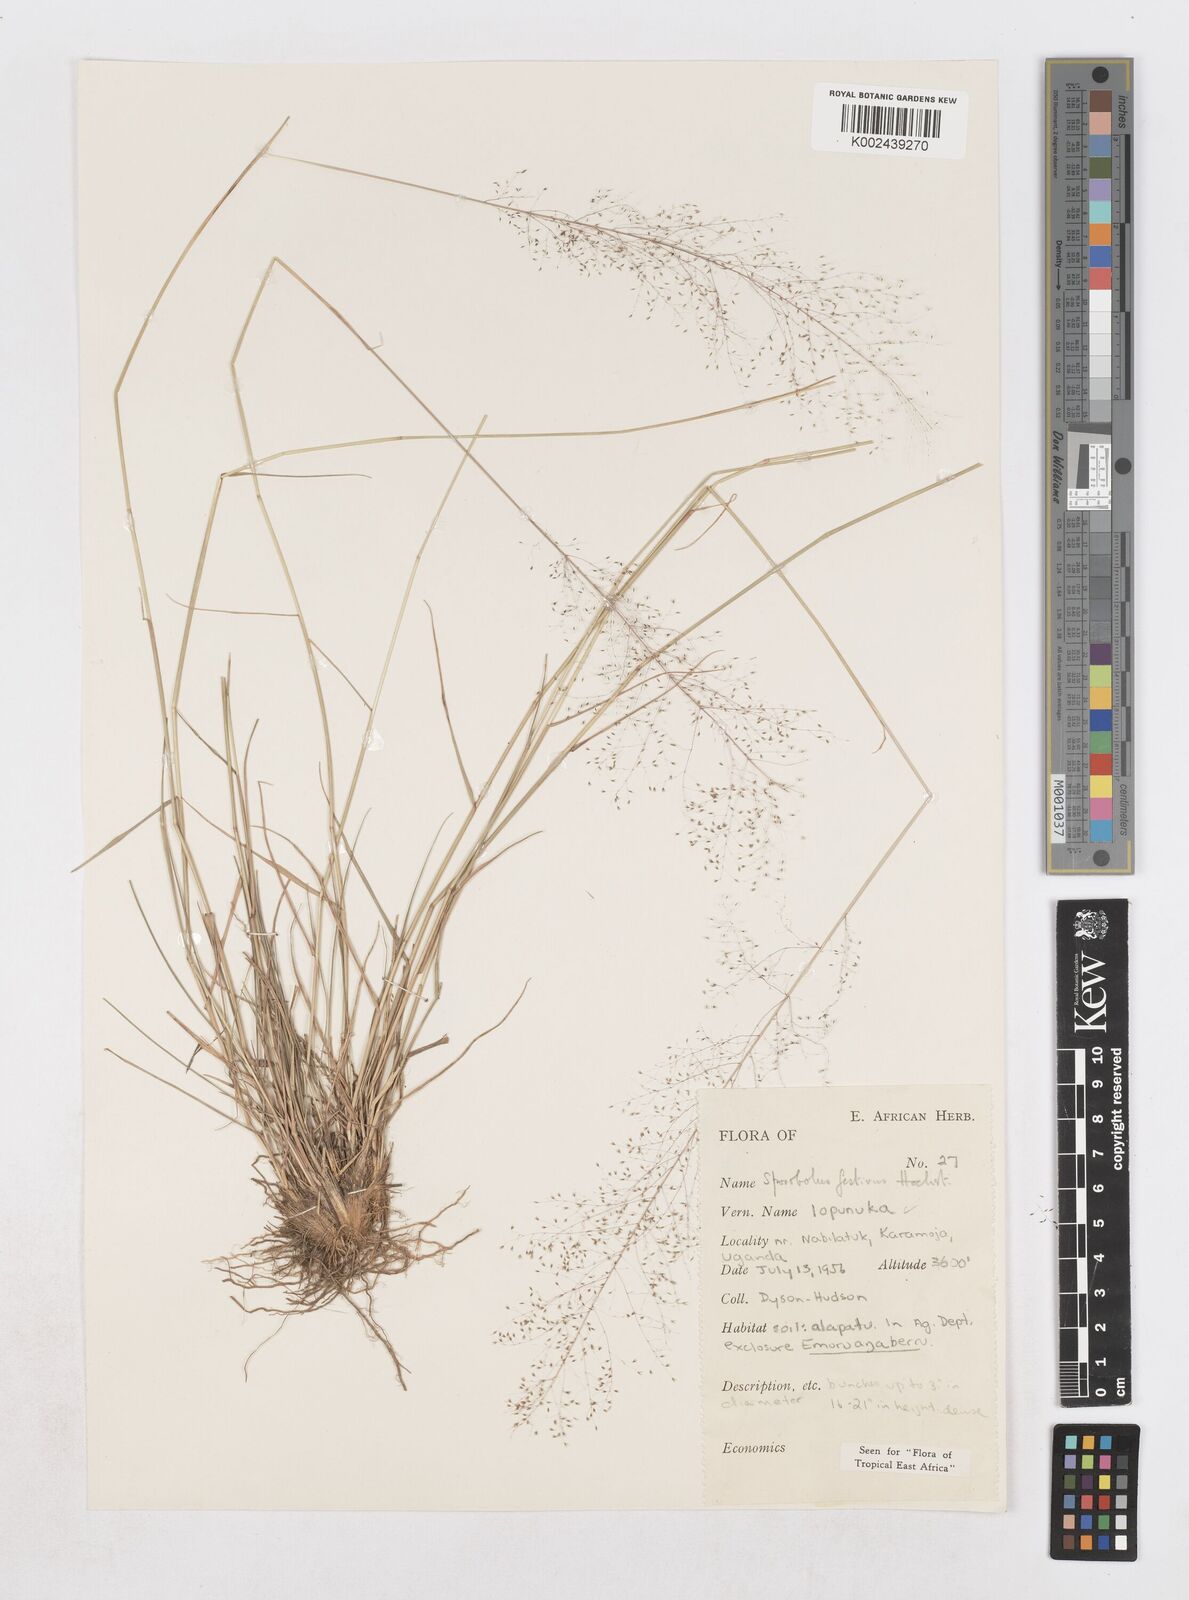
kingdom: Plantae
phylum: Tracheophyta
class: Liliopsida
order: Poales
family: Poaceae
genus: Sporobolus
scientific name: Sporobolus festivus
